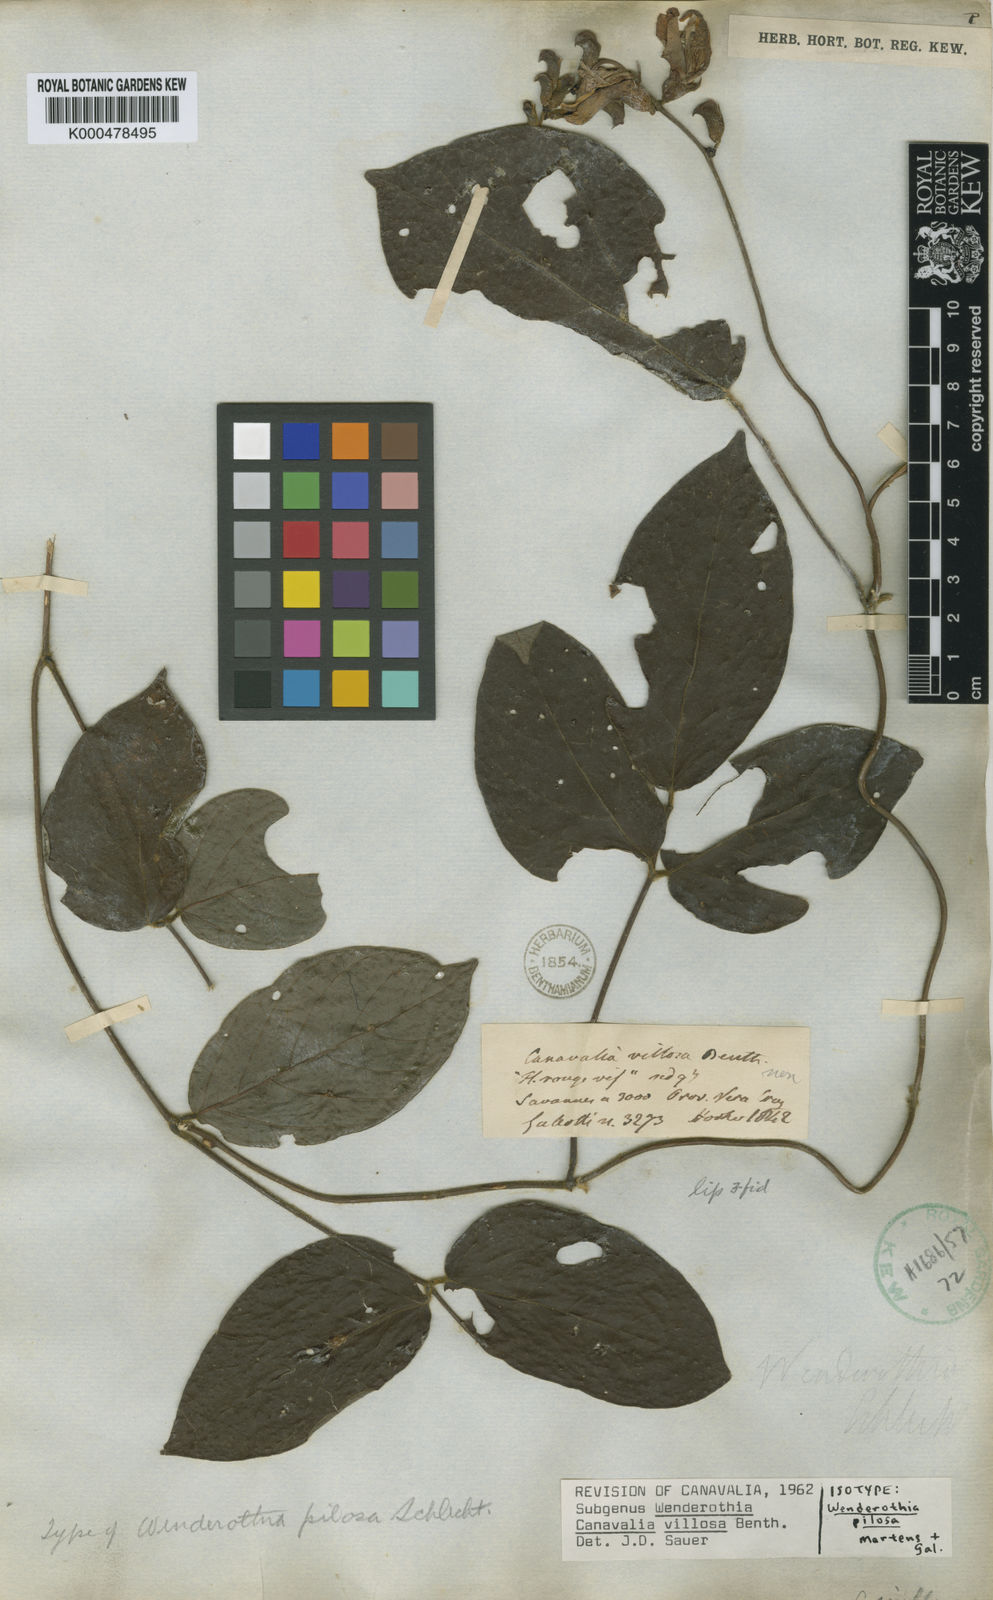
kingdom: Plantae
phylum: Tracheophyta
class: Magnoliopsida
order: Fabales
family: Fabaceae
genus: Canavalia
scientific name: Canavalia villosa
